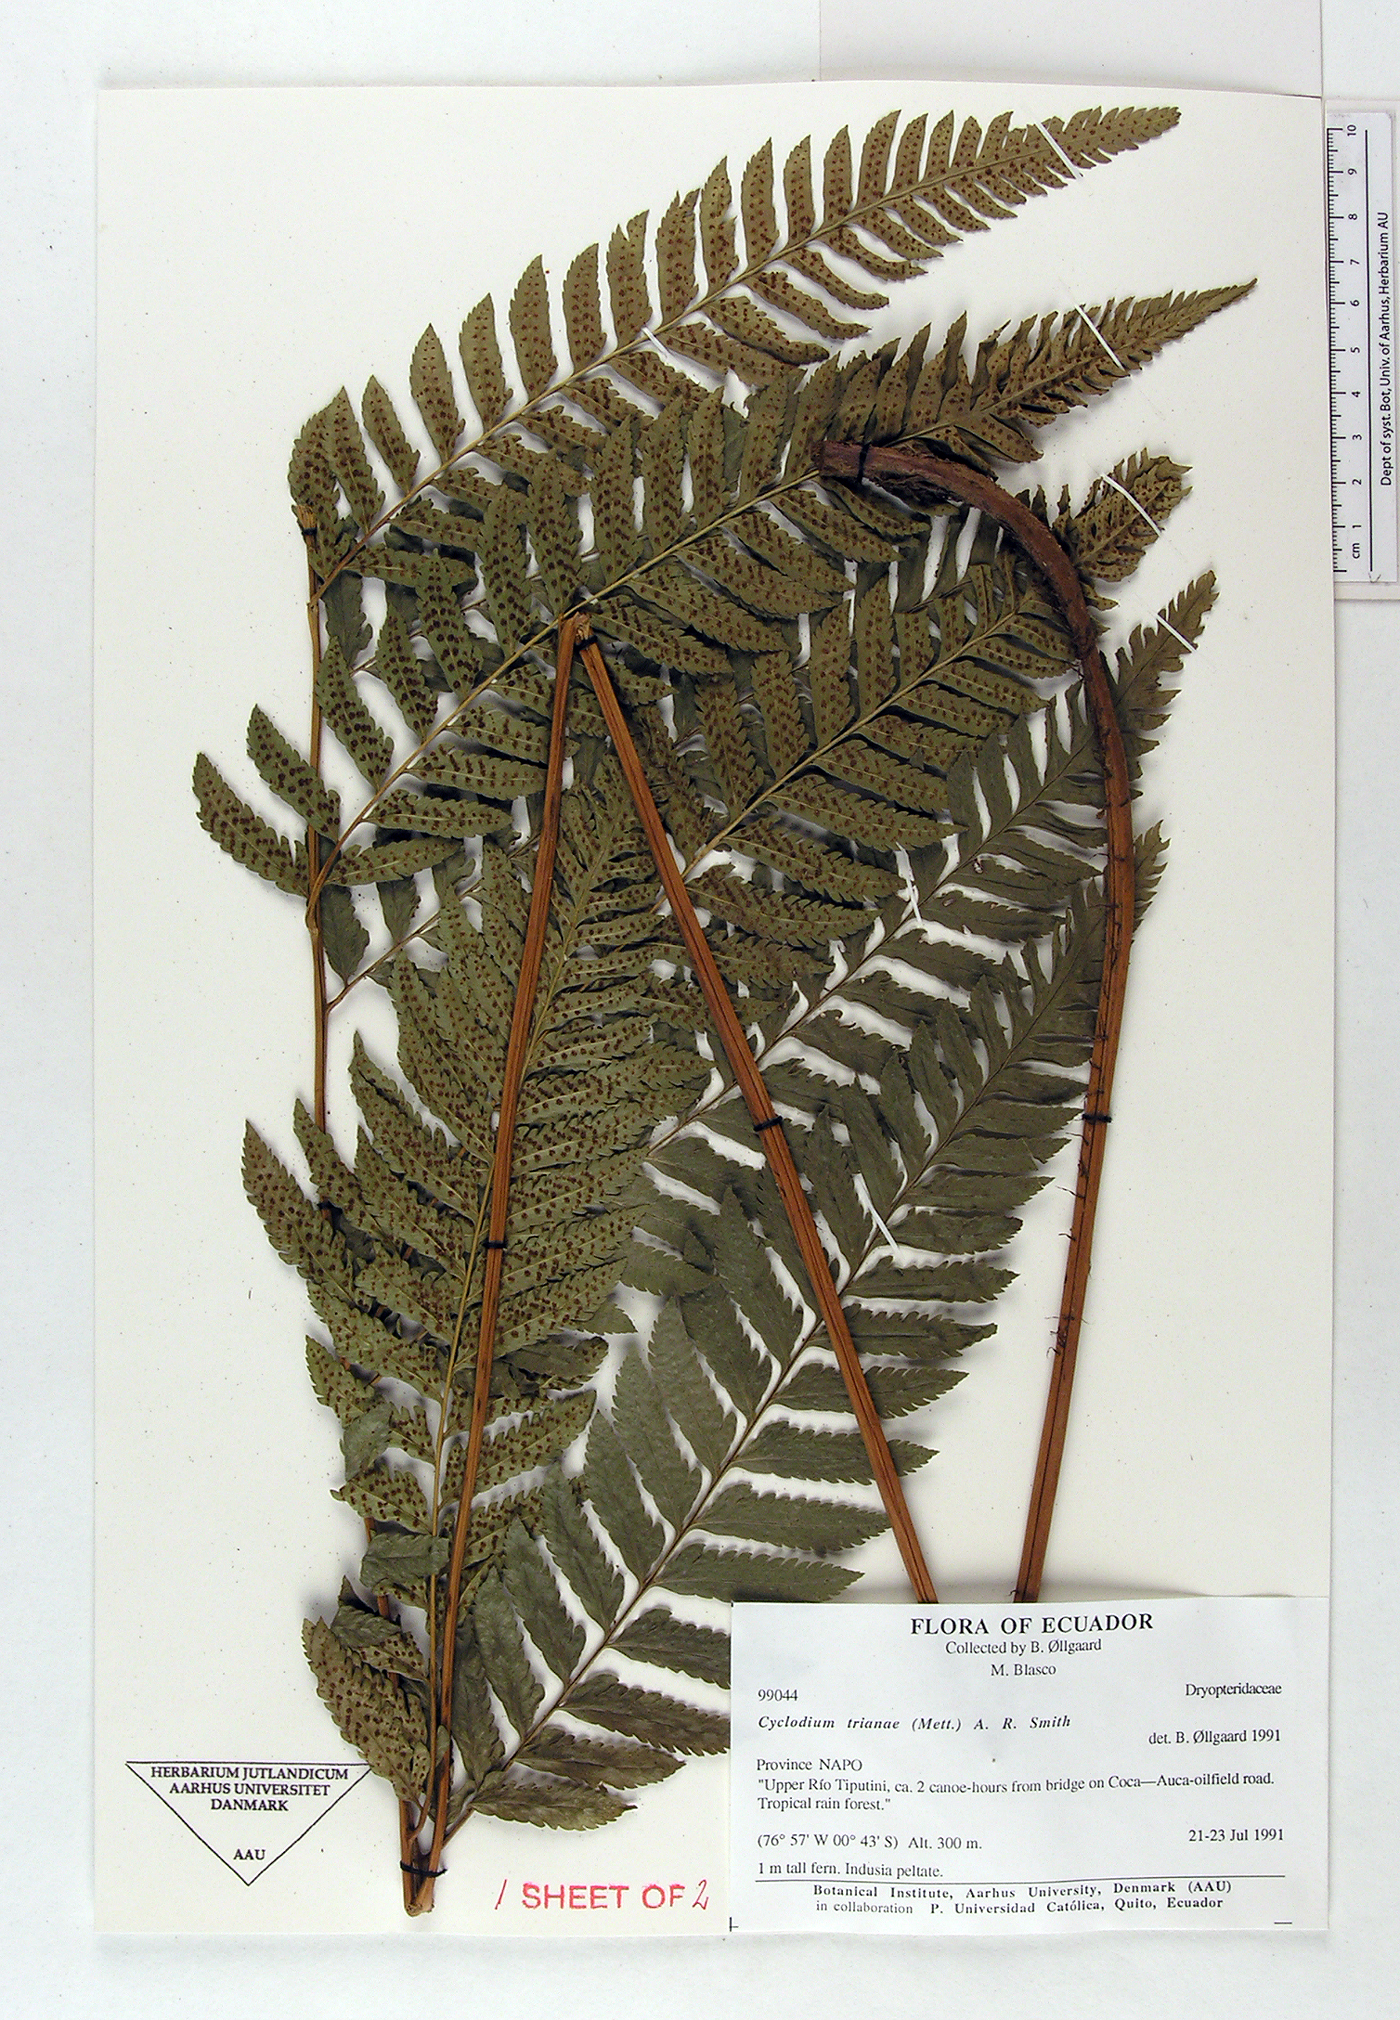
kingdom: Plantae
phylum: Tracheophyta
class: Polypodiopsida
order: Polypodiales
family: Dryopteridaceae
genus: Cyclodium
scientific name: Cyclodium trianae
